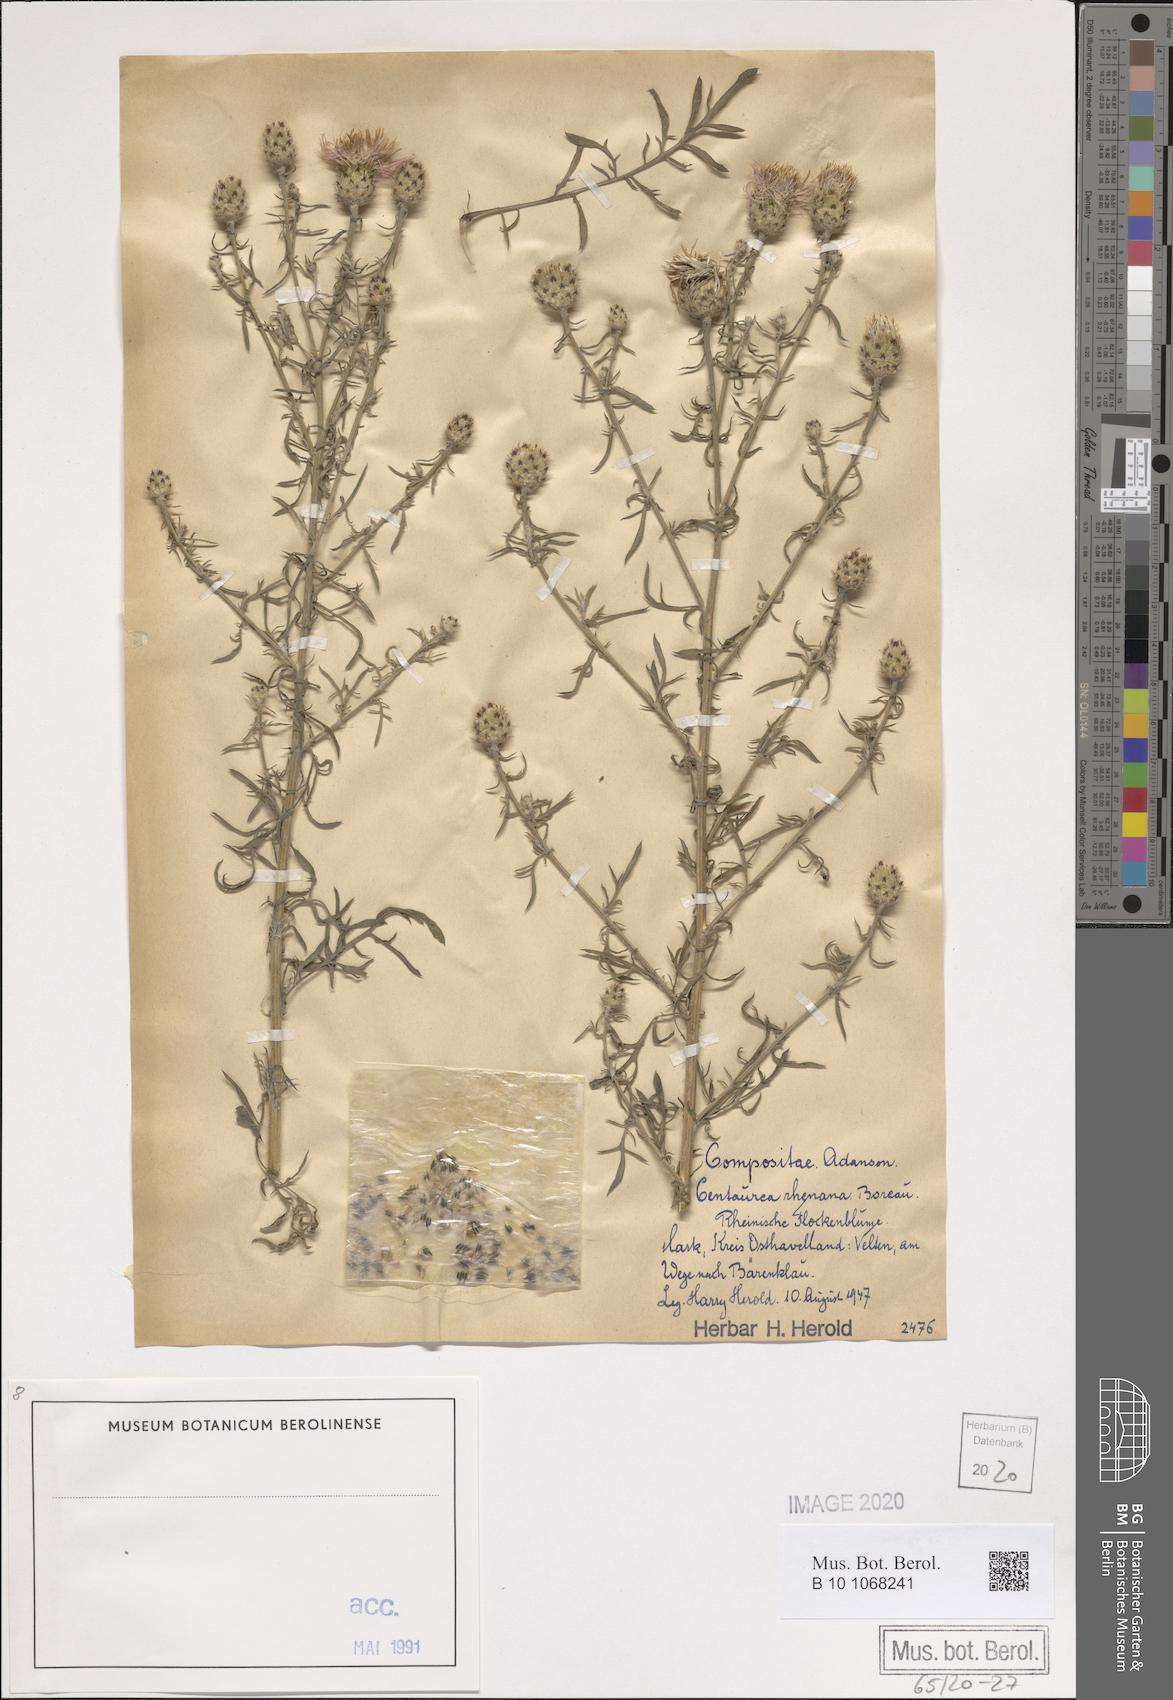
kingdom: Plantae
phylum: Tracheophyta
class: Magnoliopsida
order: Asterales
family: Asteraceae
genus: Centaurea
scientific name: Centaurea stoebe
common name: Spotted knapweed
